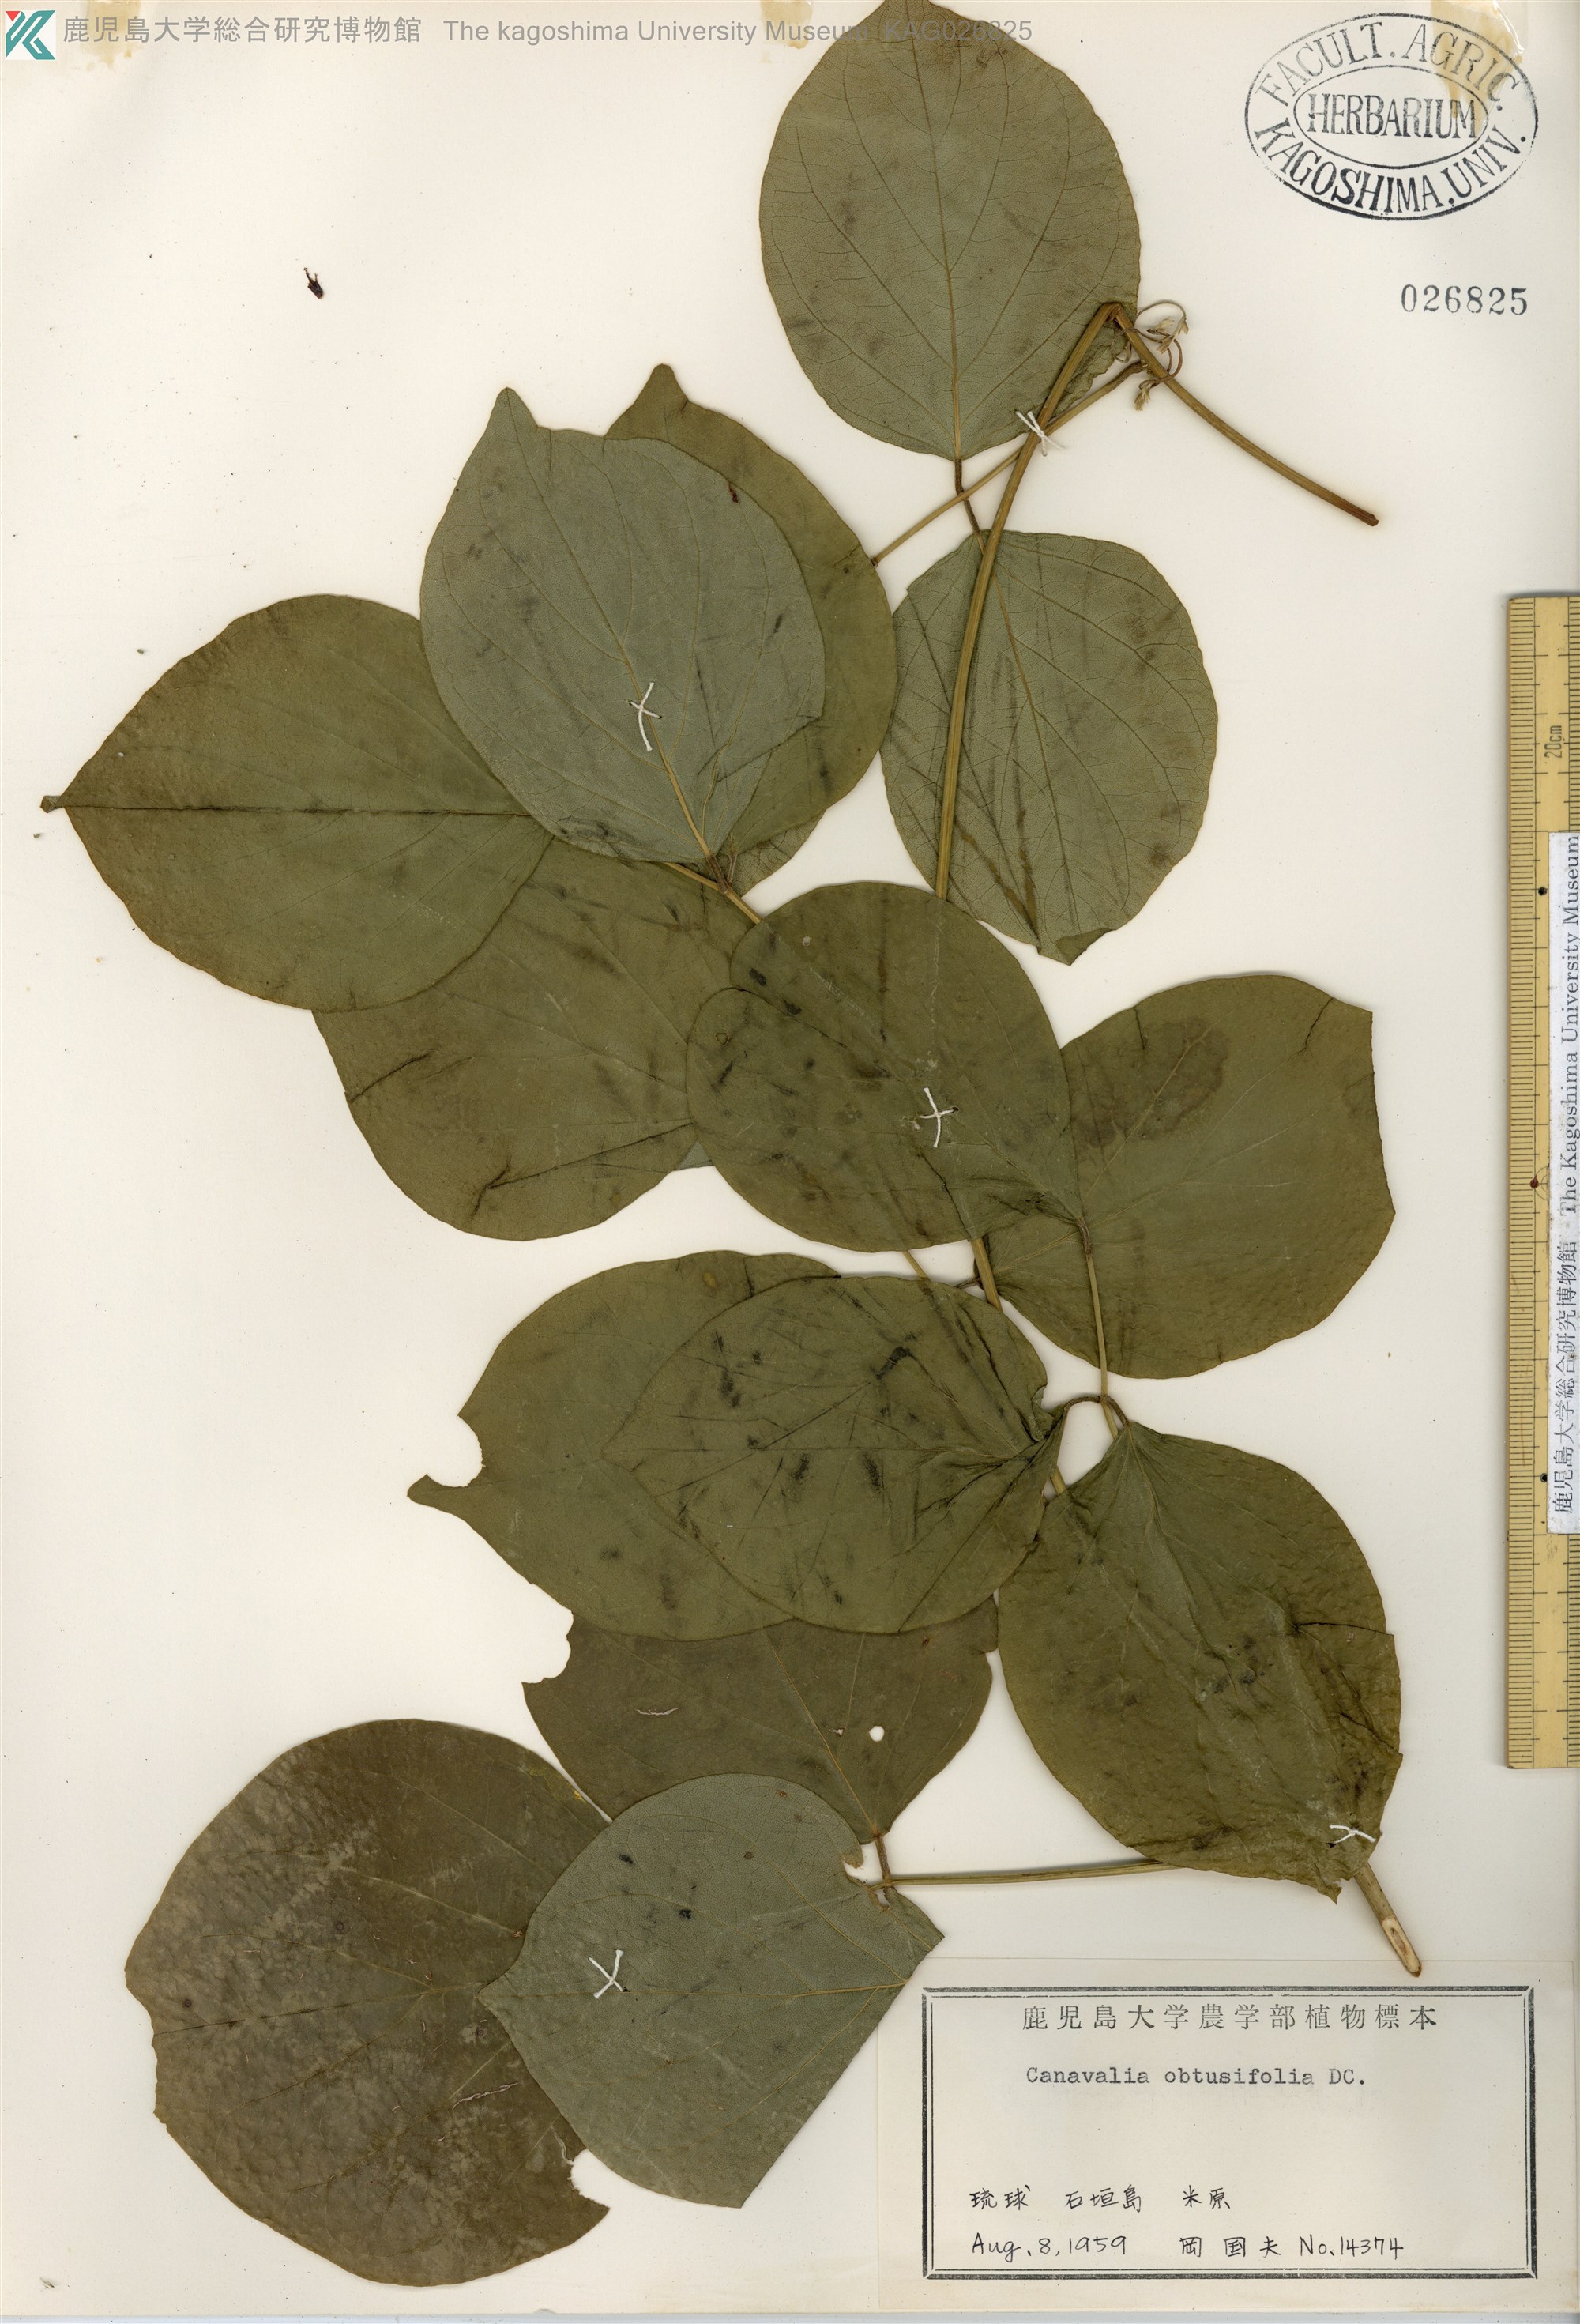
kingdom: Plantae
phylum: Tracheophyta
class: Magnoliopsida
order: Fabales
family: Fabaceae
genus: Canavalia
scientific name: Canavalia cathartica
